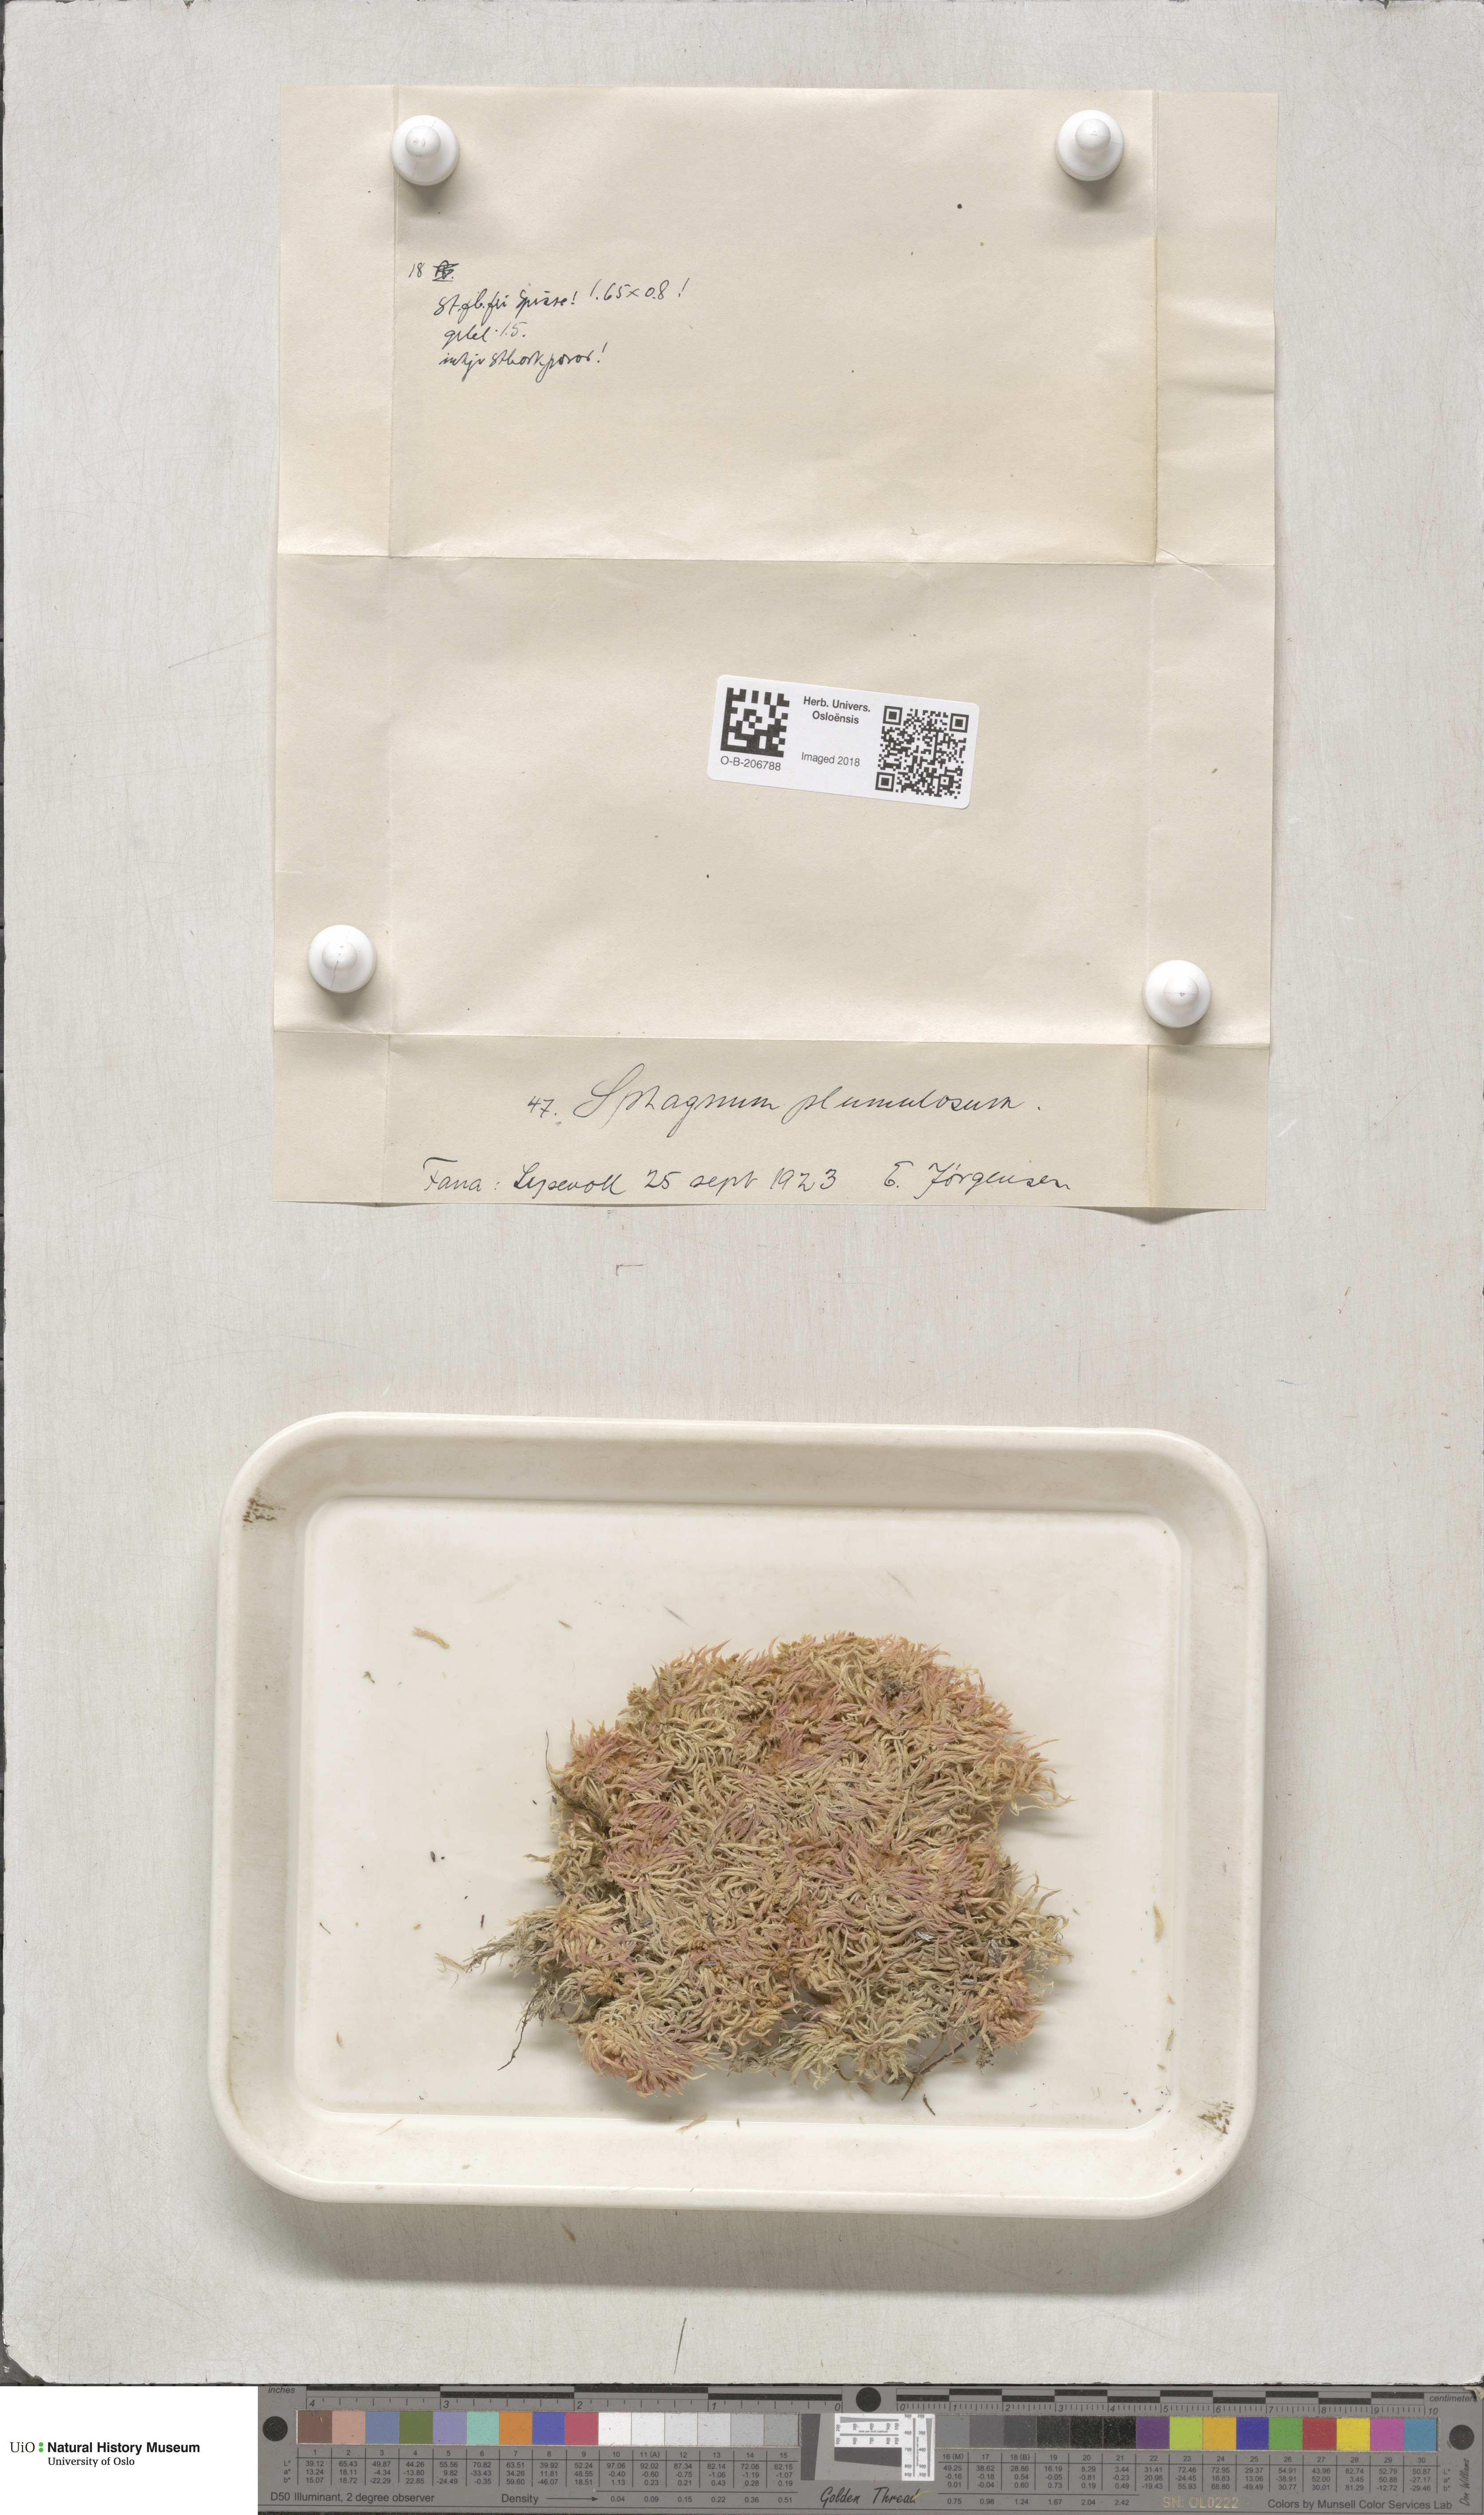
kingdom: Plantae
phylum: Bryophyta
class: Sphagnopsida
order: Sphagnales
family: Sphagnaceae
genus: Sphagnum
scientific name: Sphagnum subnitens
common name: Lustrous bog-moss
